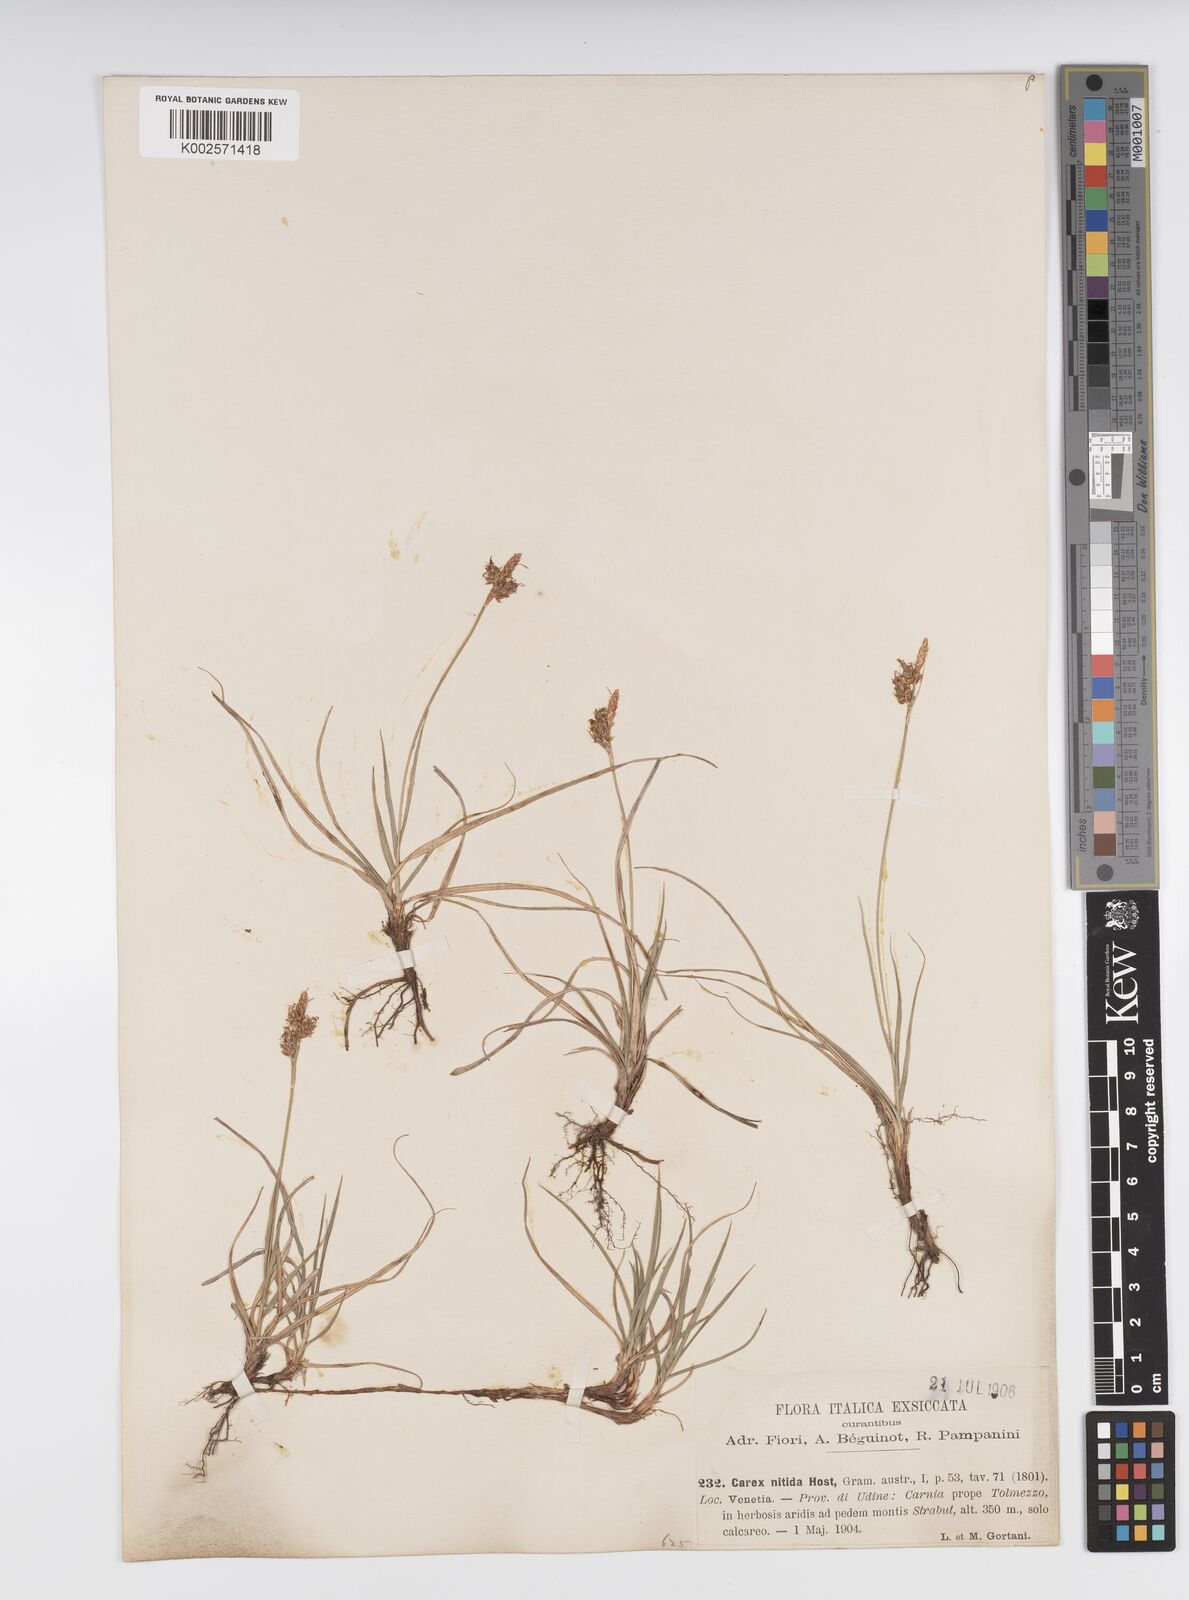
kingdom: Plantae
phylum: Tracheophyta
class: Liliopsida
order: Poales
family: Cyperaceae
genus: Carex
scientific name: Carex liparocarpos
